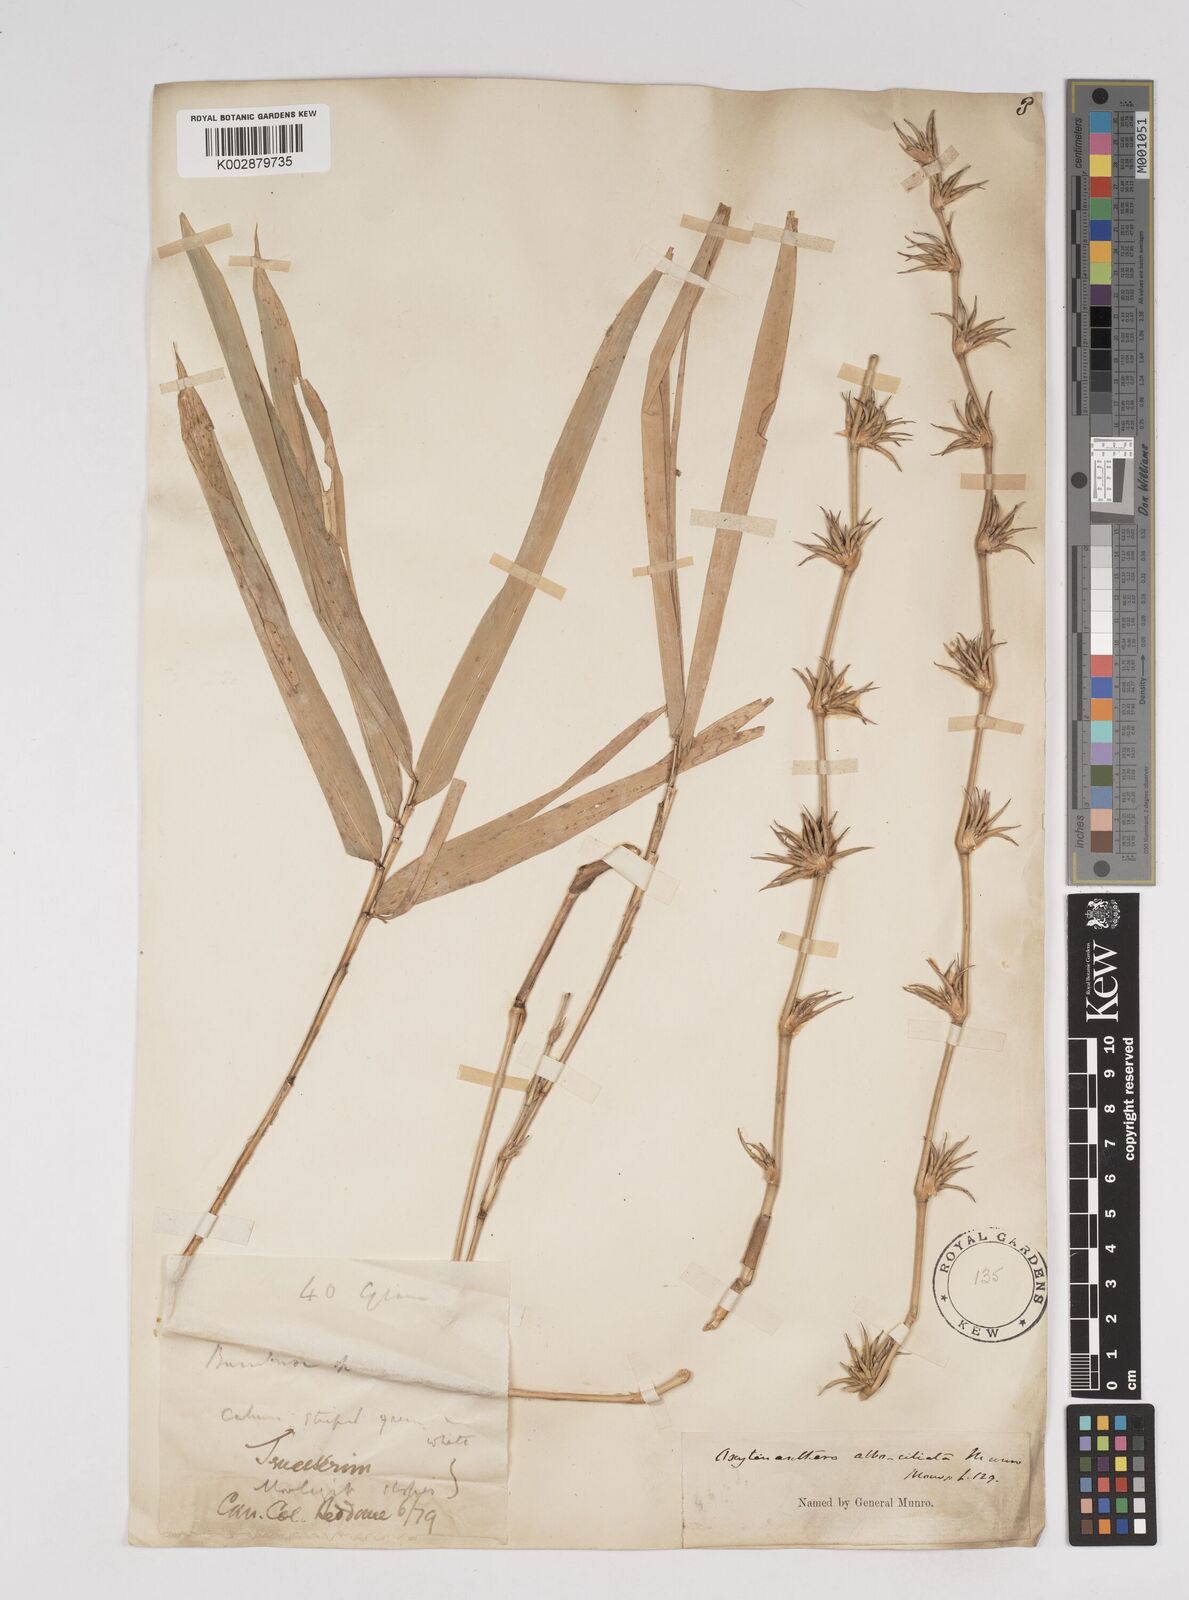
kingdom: Plantae
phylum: Tracheophyta
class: Liliopsida
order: Poales
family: Poaceae
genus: Gigantochloa
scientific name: Gigantochloa albociliata
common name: White-fringe gigantochloa
